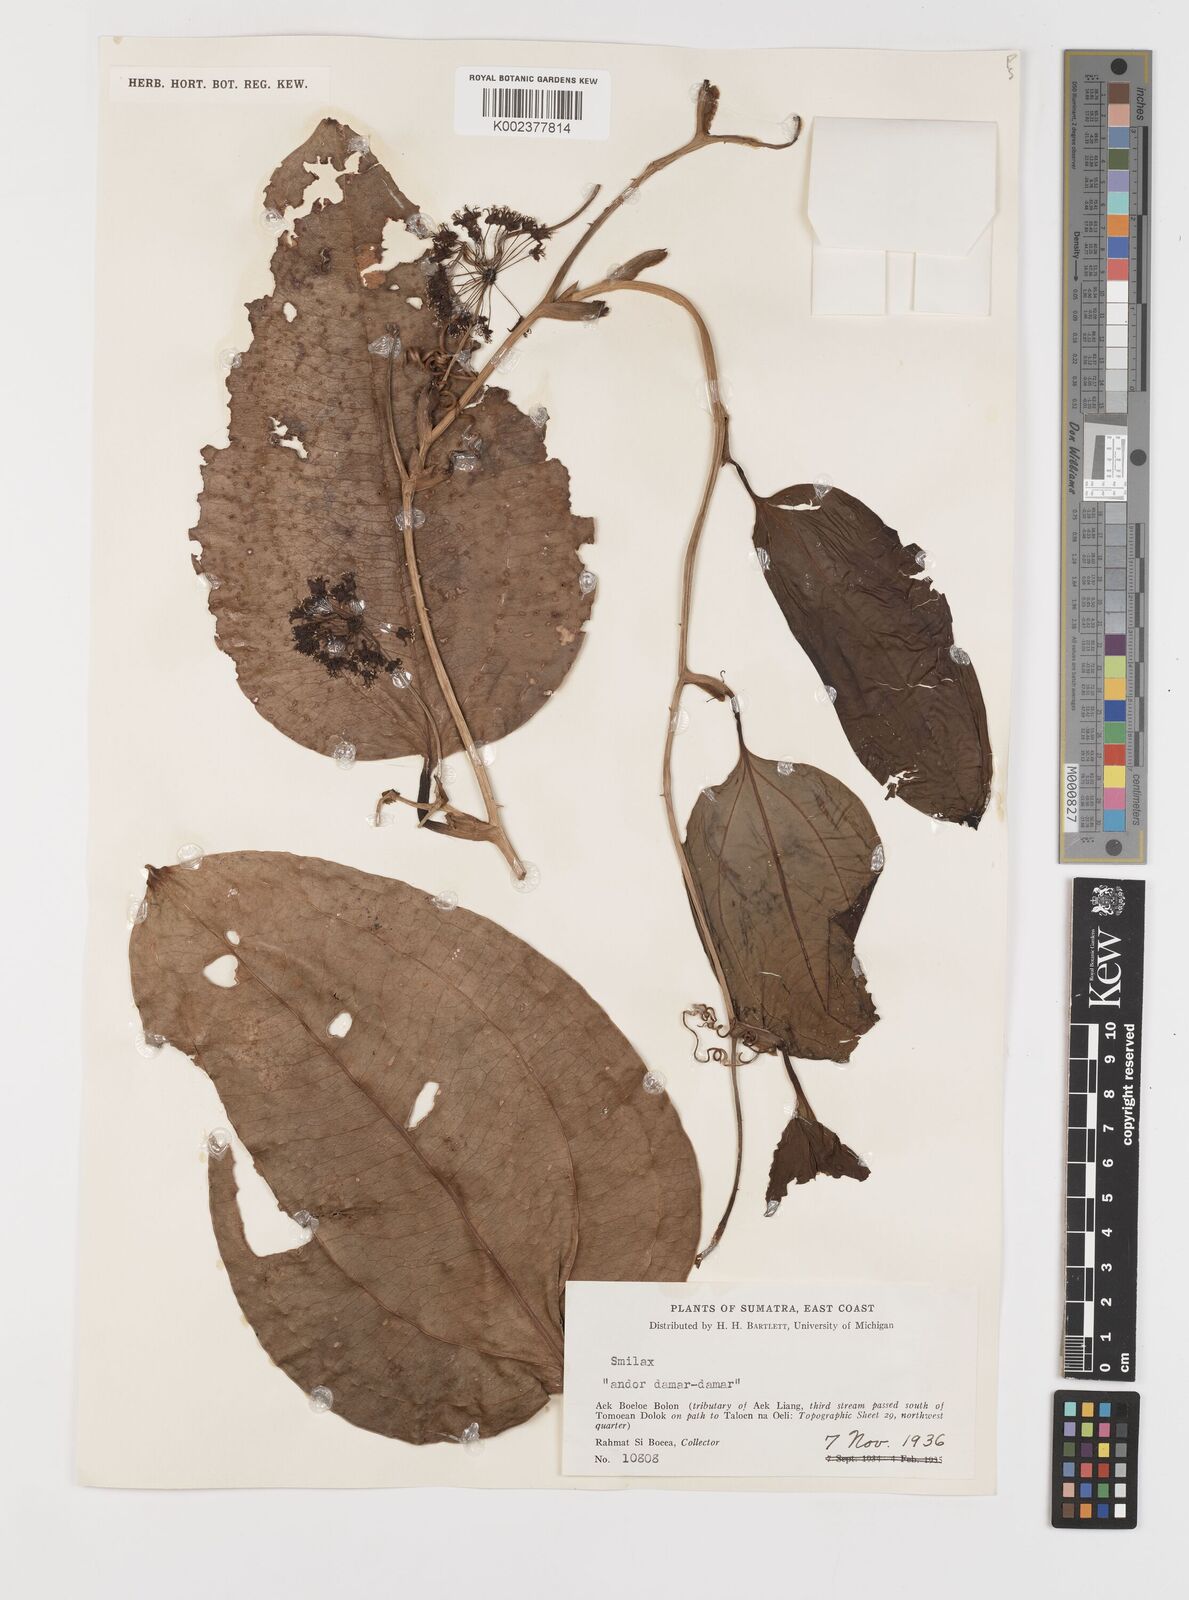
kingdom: Plantae
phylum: Tracheophyta
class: Liliopsida
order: Liliales
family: Smilacaceae
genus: Smilax
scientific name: Smilax
